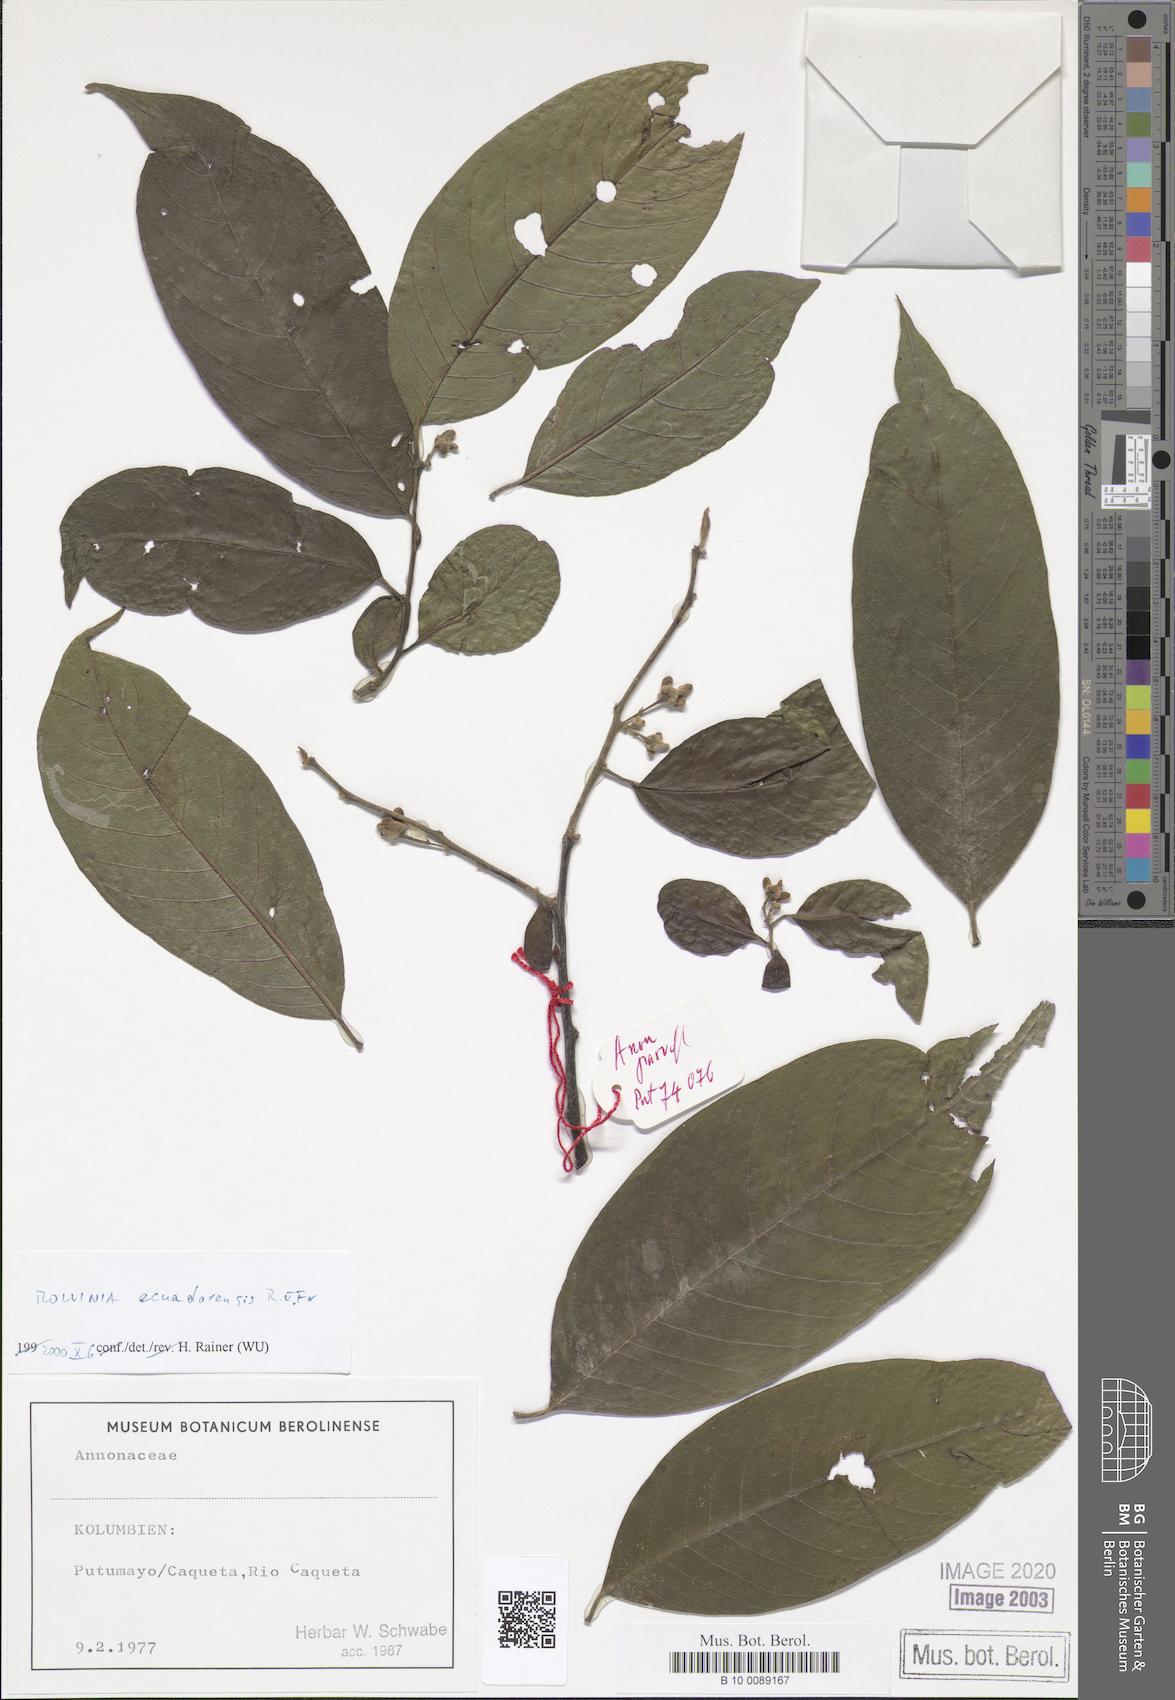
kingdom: Plantae
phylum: Tracheophyta
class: Magnoliopsida
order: Magnoliales
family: Annonaceae
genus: Annona
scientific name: Annona neoecuadorensis
